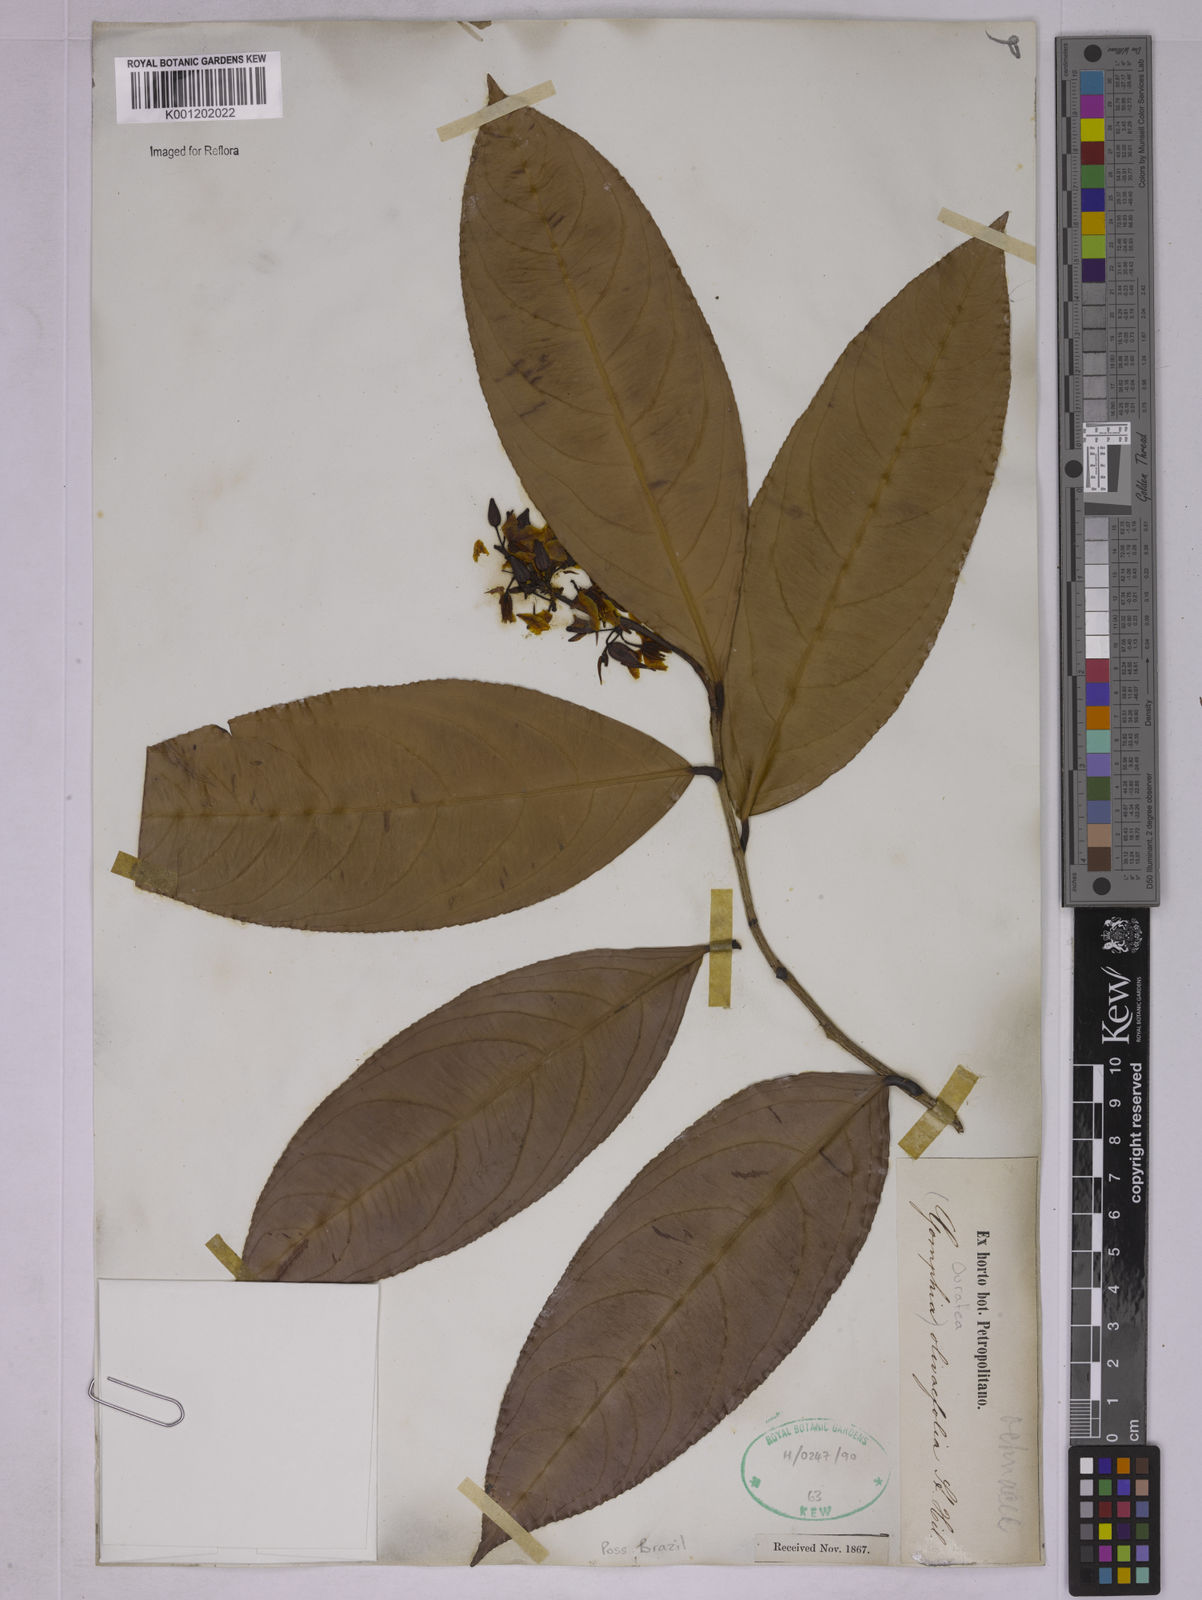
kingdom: Plantae
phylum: Tracheophyta
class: Magnoliopsida
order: Malpighiales
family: Ochnaceae
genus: Ouratea
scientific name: Ouratea oliviformis
